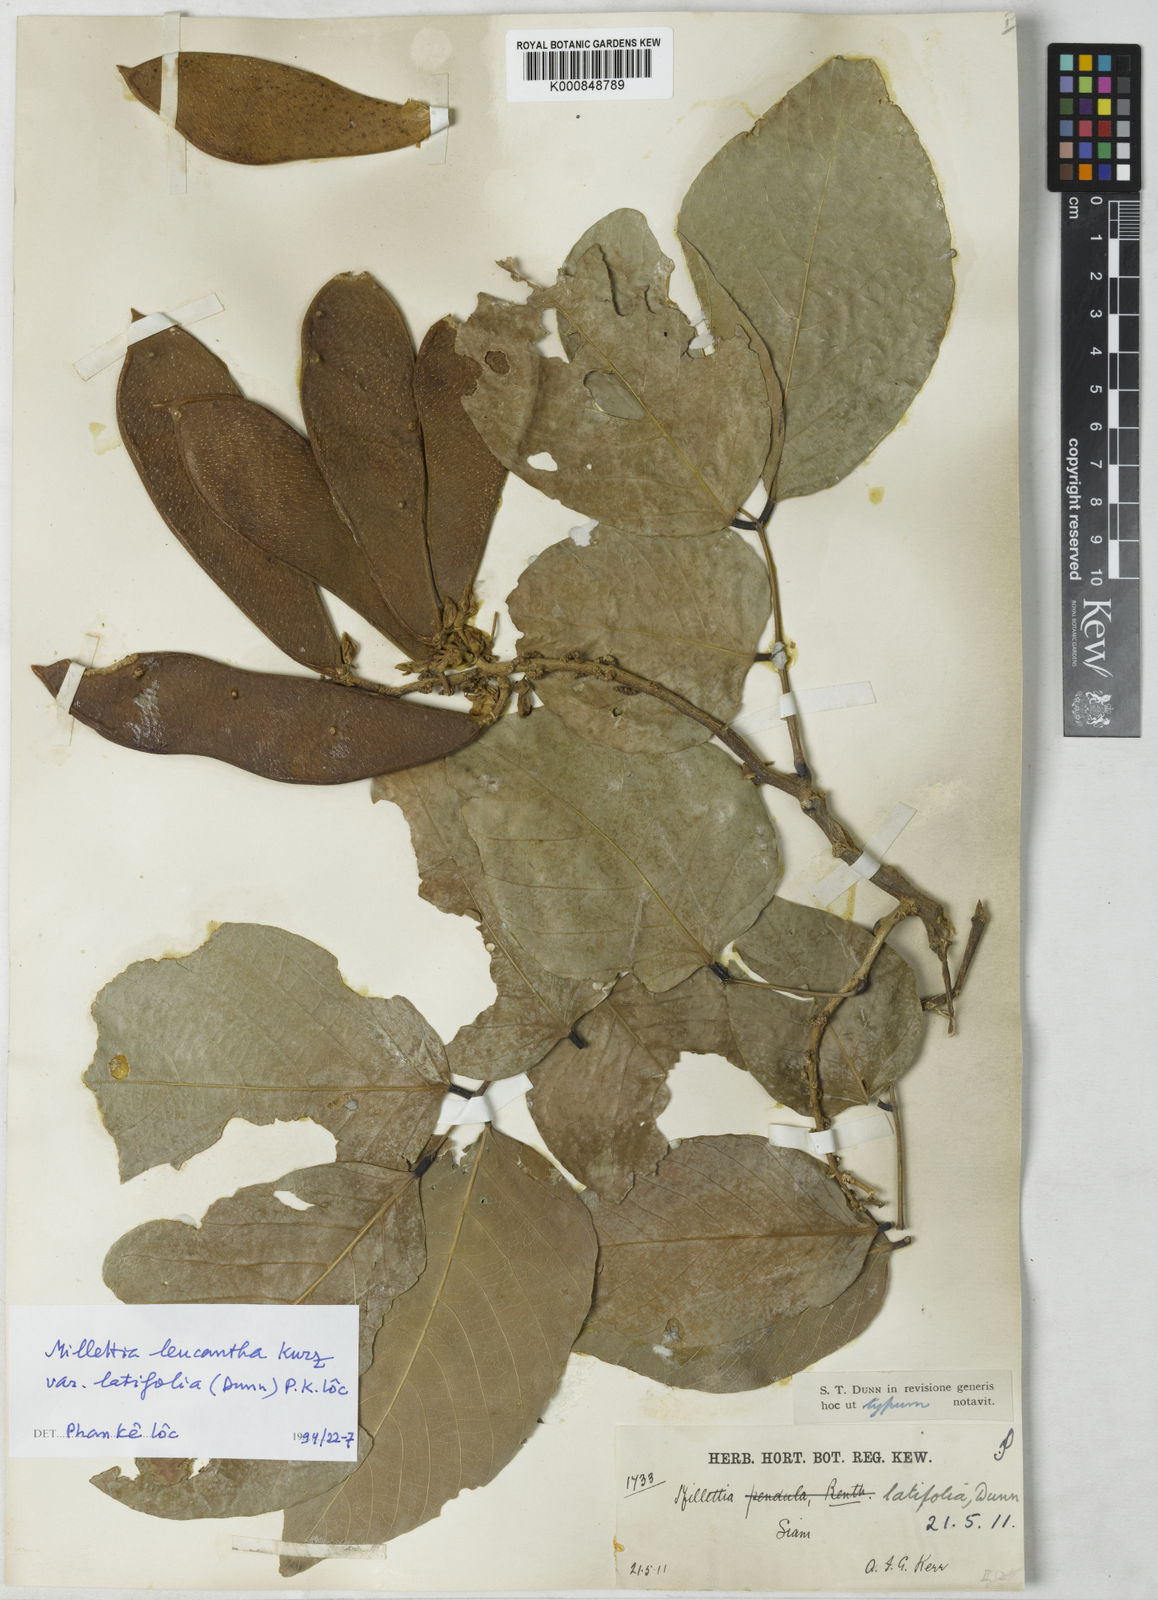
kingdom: Plantae
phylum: Tracheophyta
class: Magnoliopsida
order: Fabales
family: Fabaceae
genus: Imbralyx
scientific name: Imbralyx leucanthus
